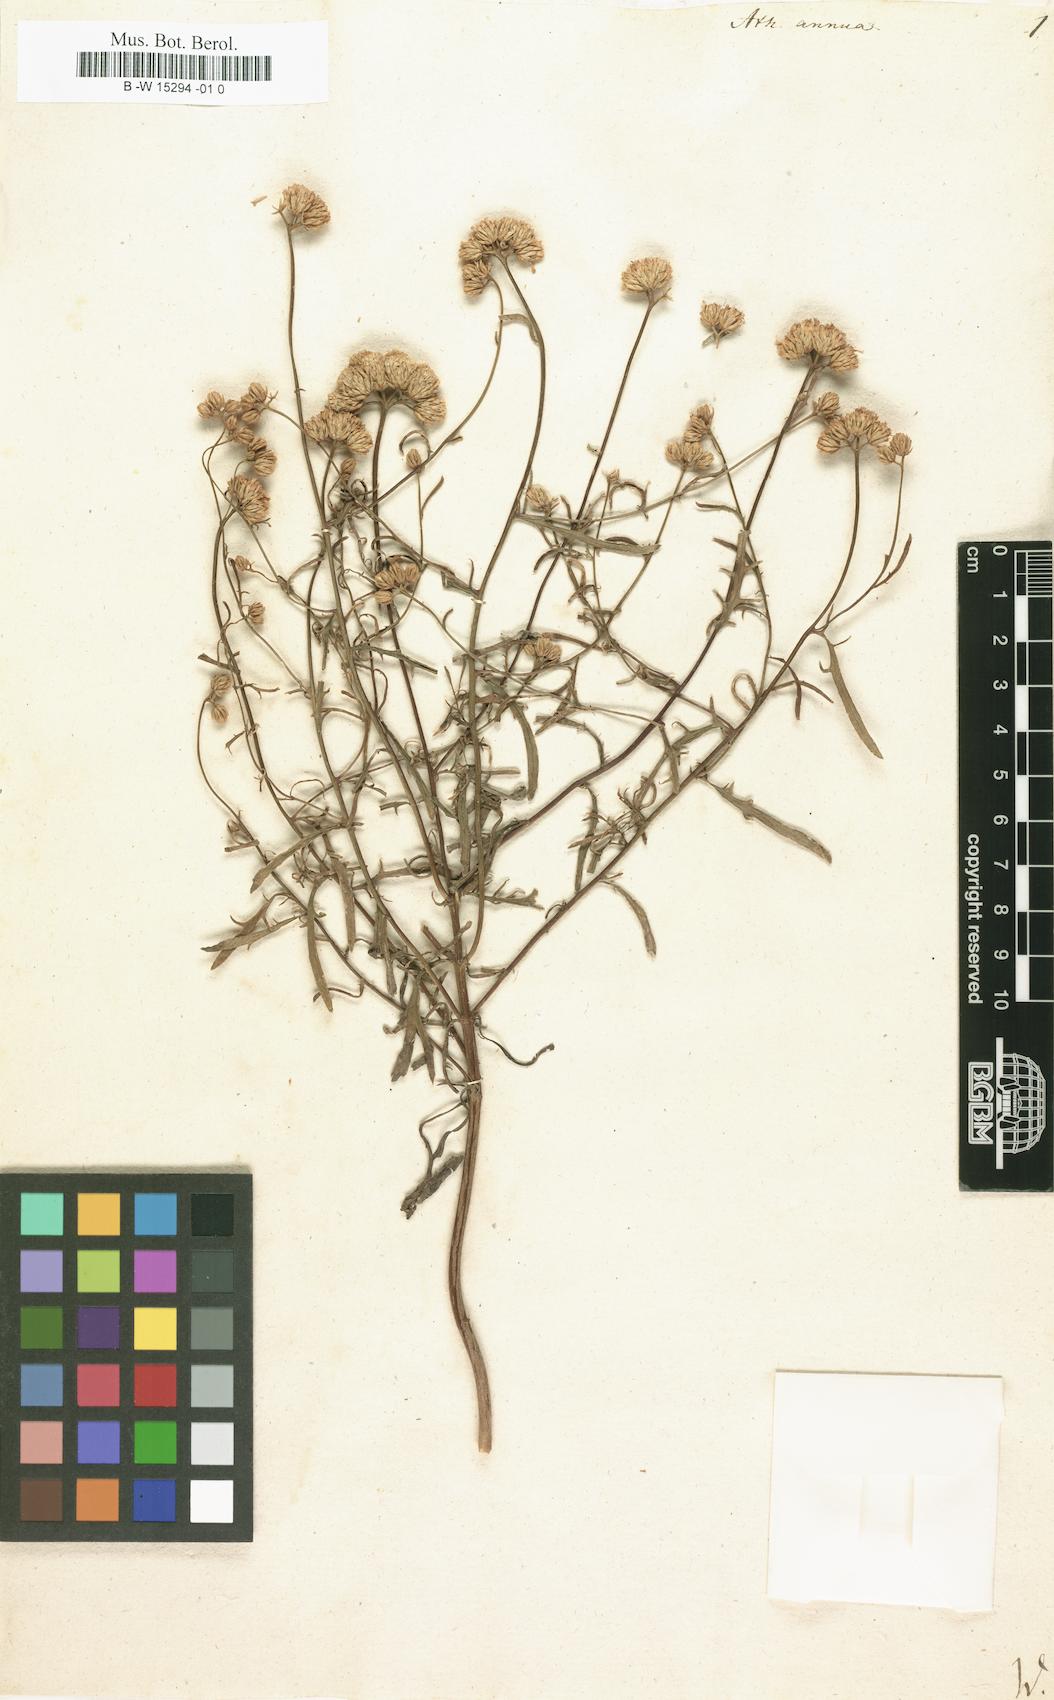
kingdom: Plantae
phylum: Tracheophyta
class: Magnoliopsida
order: Asterales
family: Asteraceae
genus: Lonas
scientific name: Lonas annua
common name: African daisy
